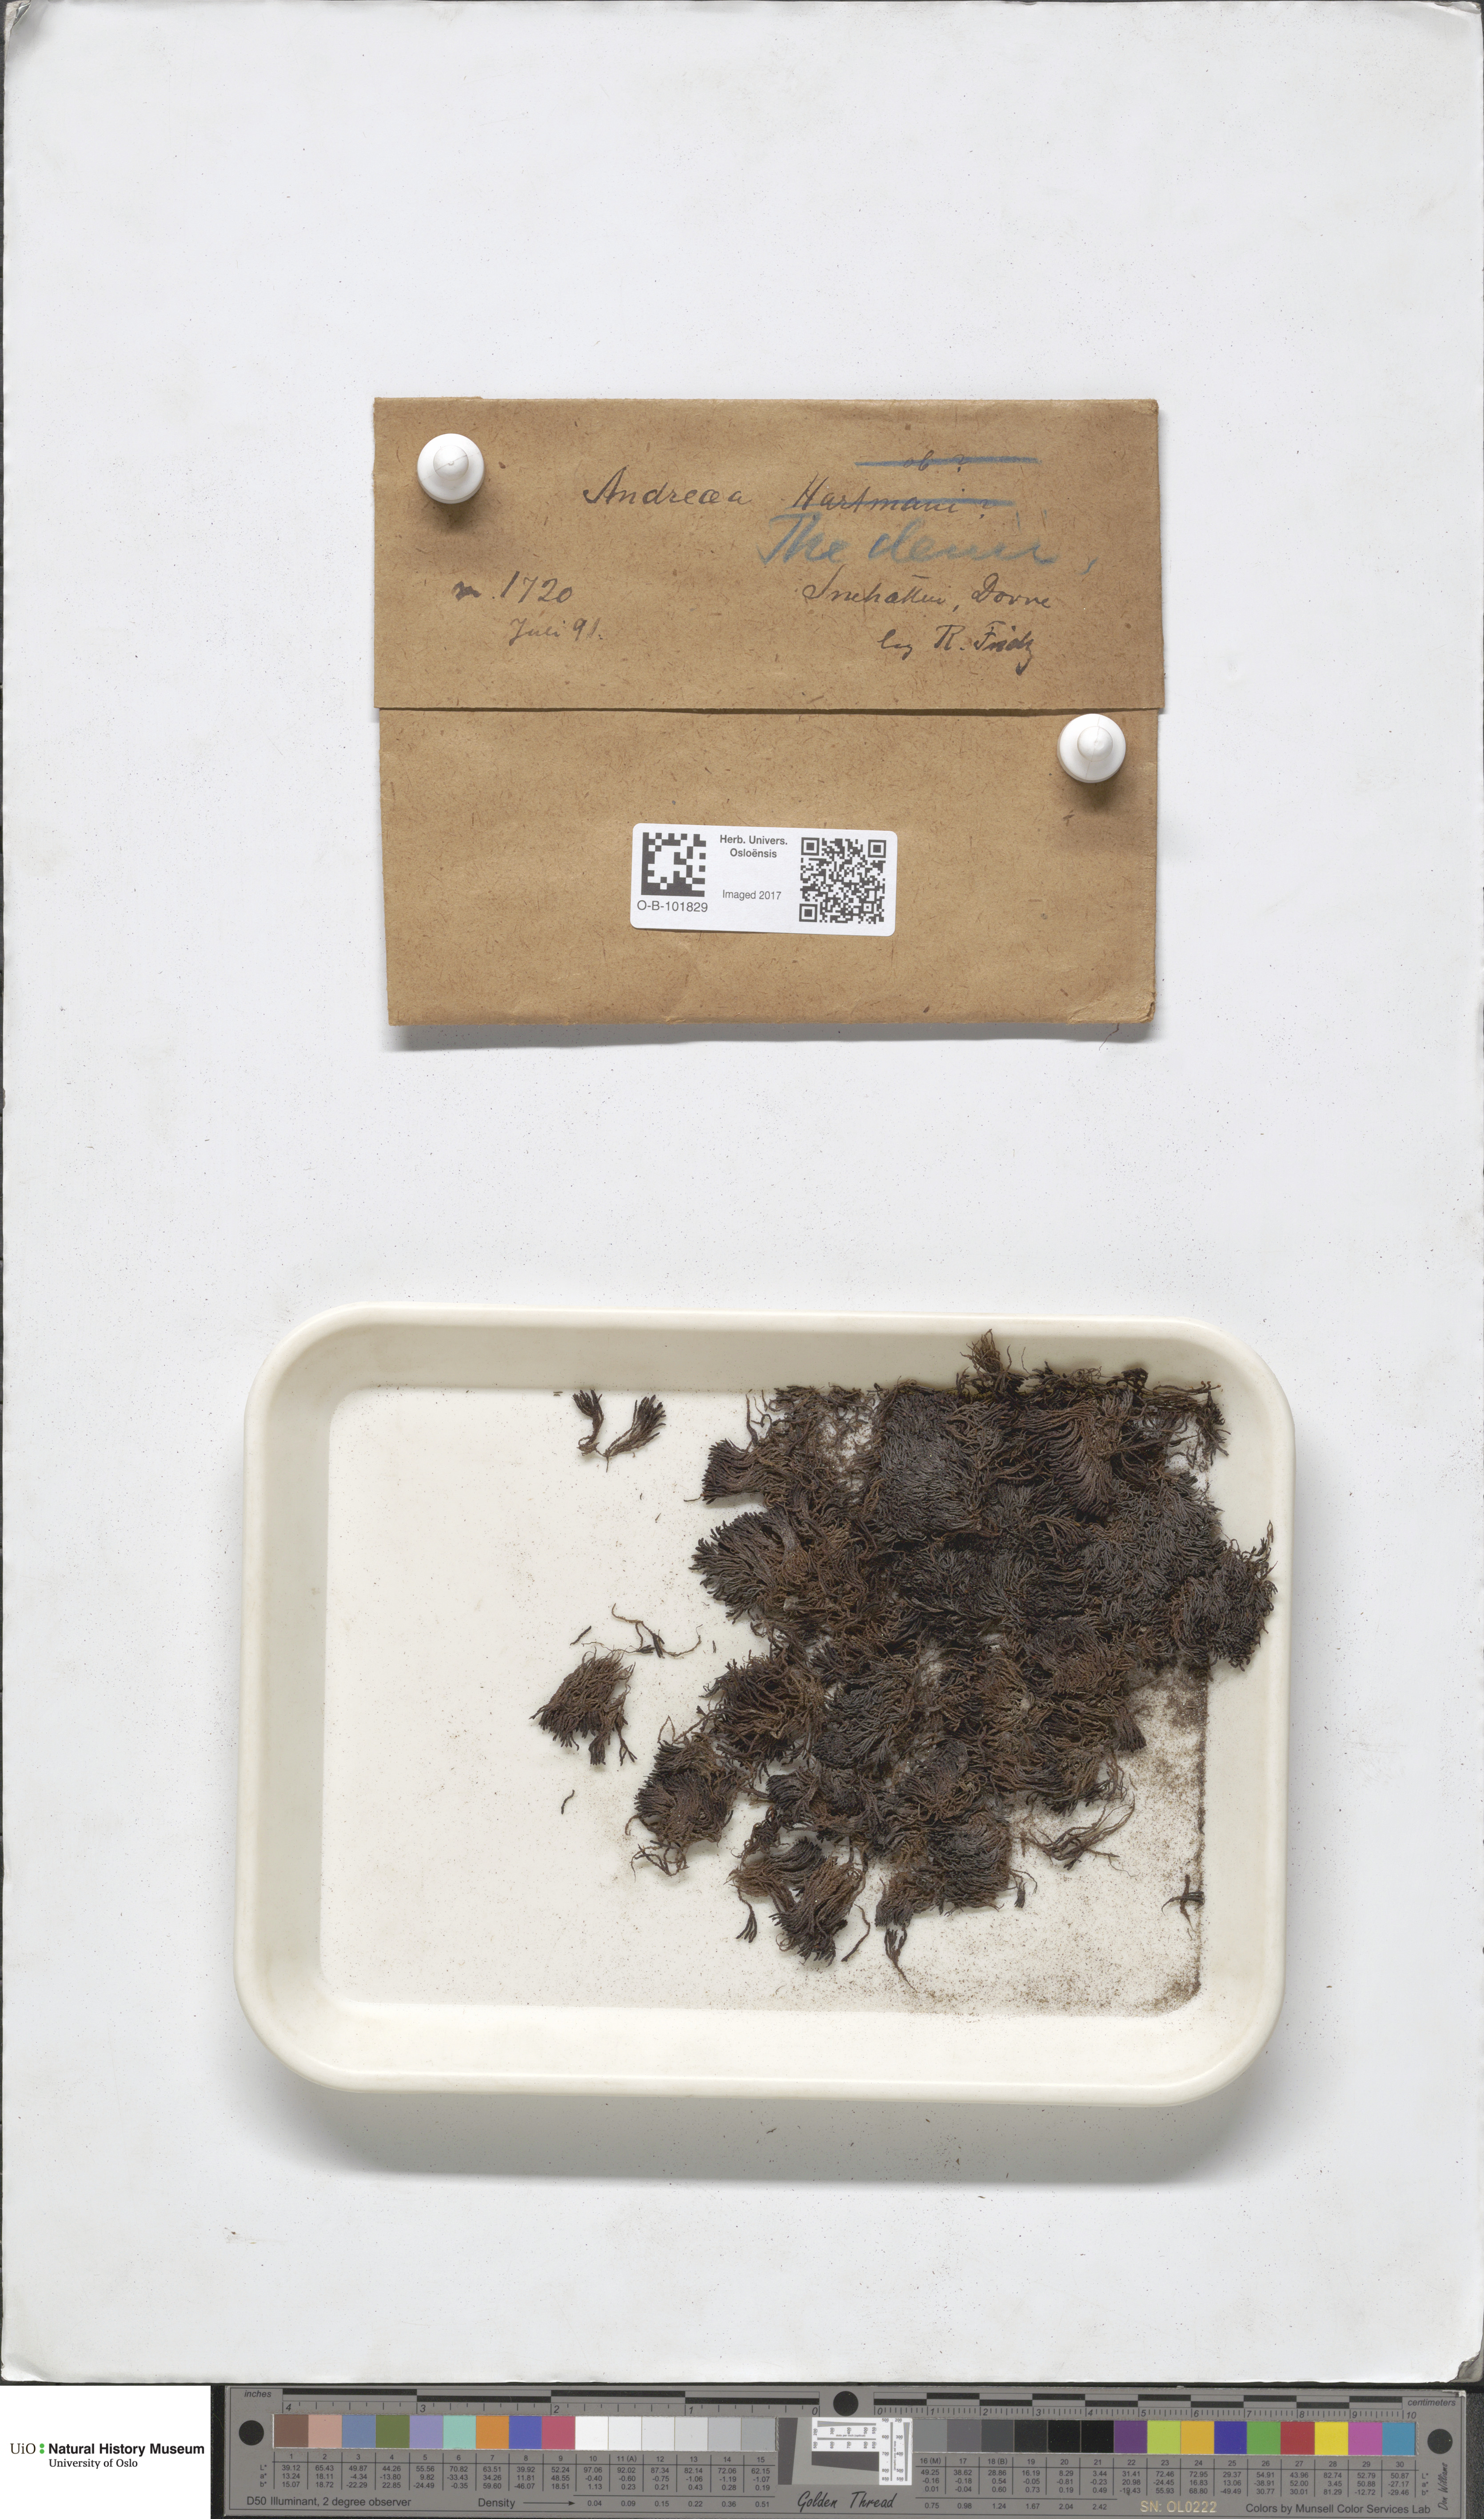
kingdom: Plantae
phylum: Bryophyta
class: Andreaeopsida
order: Andreaeales
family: Andreaeaceae
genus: Andreaea
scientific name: Andreaea hookeri
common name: Alpine rock-moss
